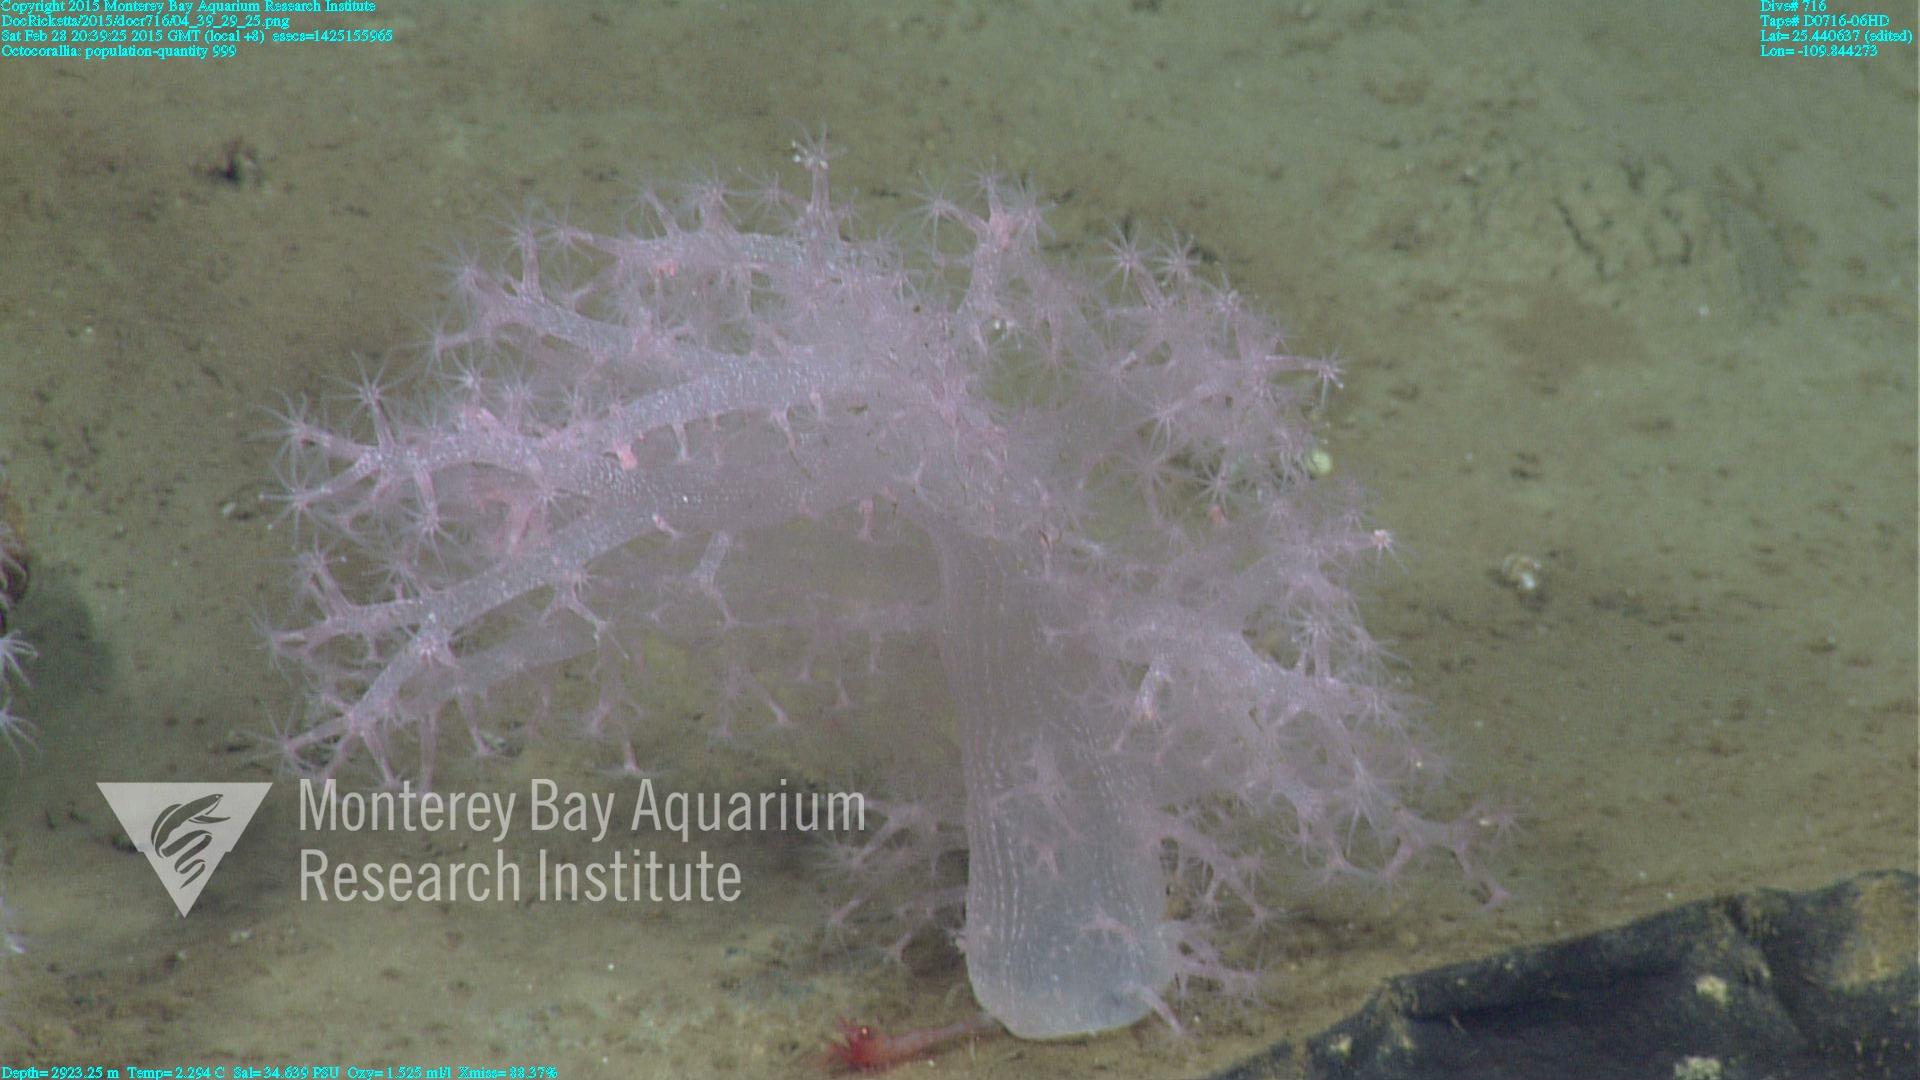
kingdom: Animalia
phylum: Cnidaria
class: Anthozoa
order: Malacalcyonacea
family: Alcyoniidae
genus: Gersemia
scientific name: Gersemia juliepackardae
